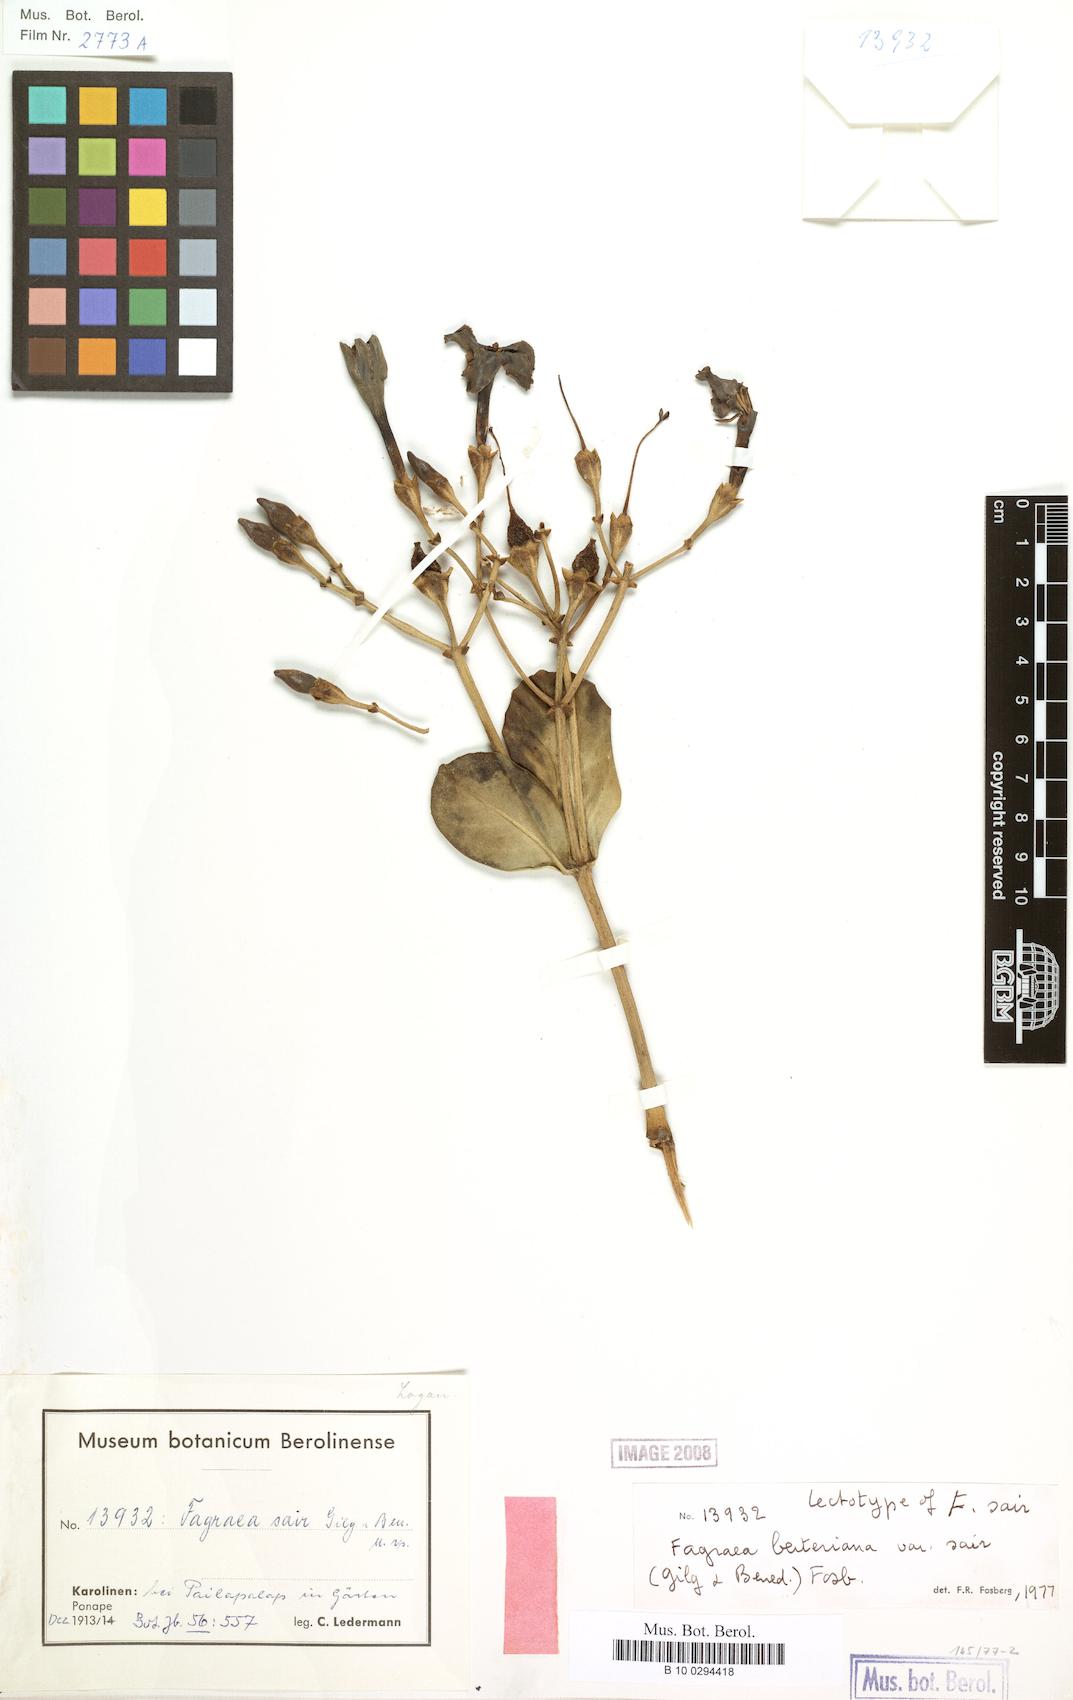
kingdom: Plantae
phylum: Tracheophyta
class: Magnoliopsida
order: Gentianales
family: Gentianaceae
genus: Fagraea
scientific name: Fagraea berteroana
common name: Cape jitta
